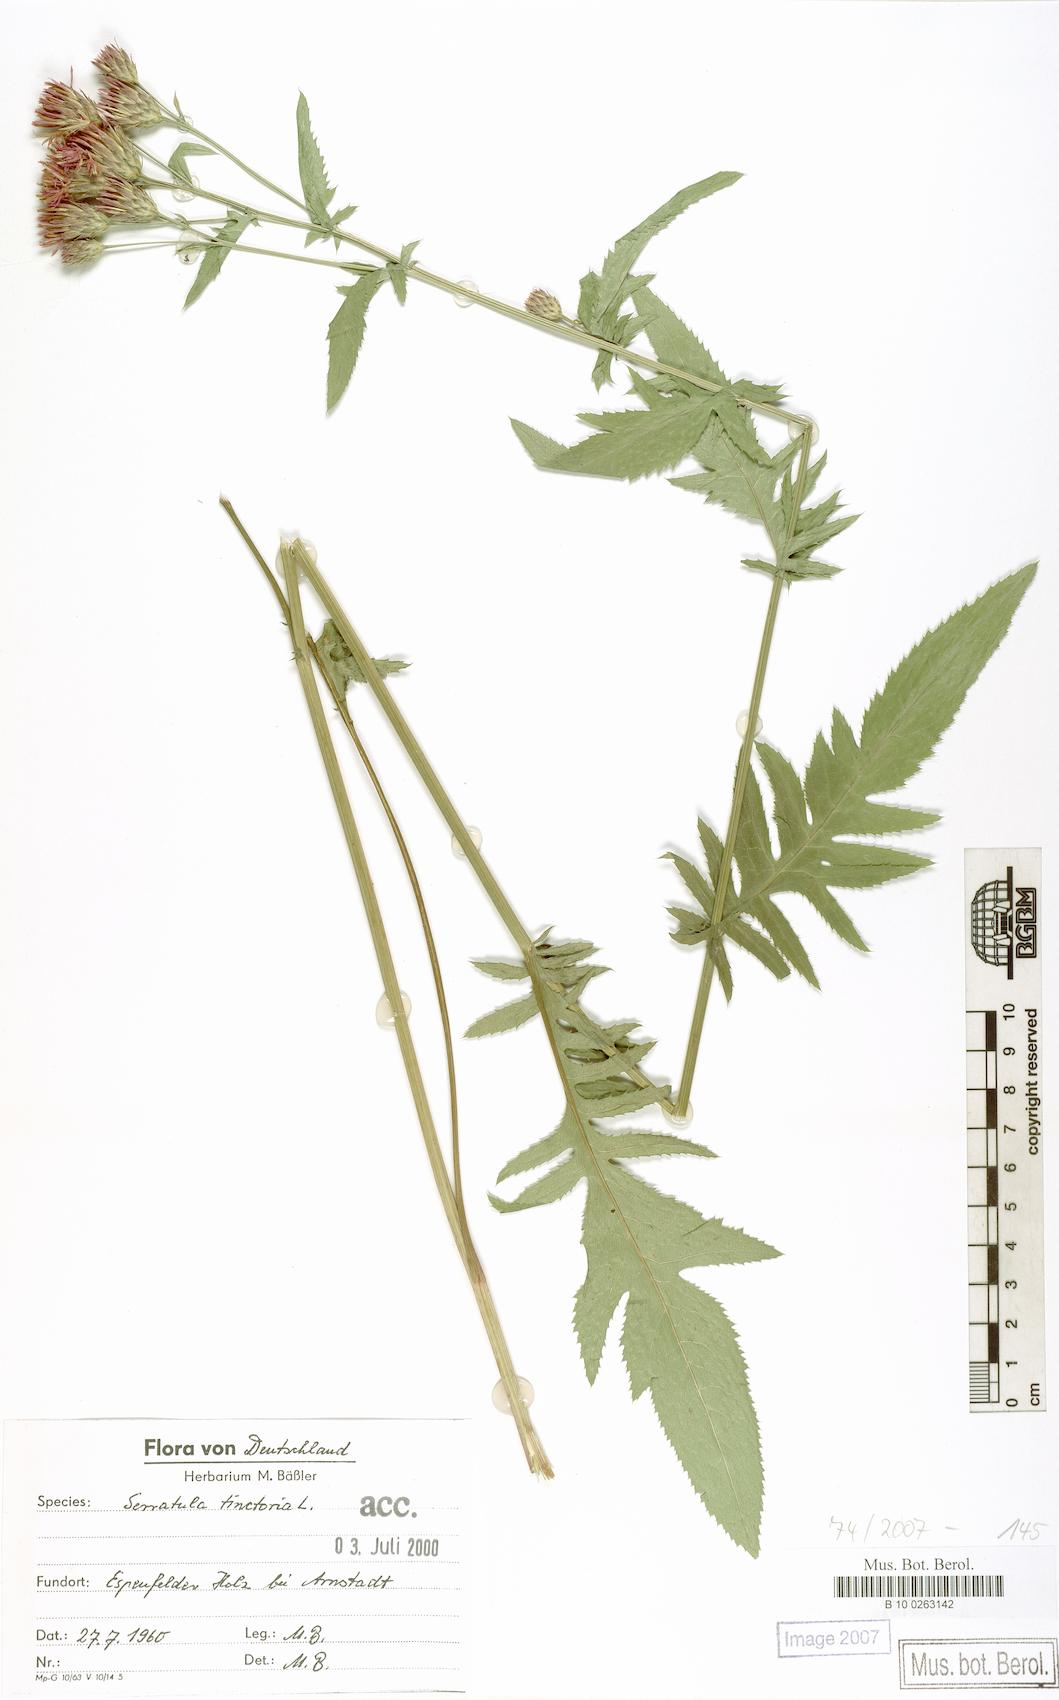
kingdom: Plantae
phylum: Tracheophyta
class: Magnoliopsida
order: Asterales
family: Asteraceae
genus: Serratula
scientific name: Serratula tinctoria
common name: Saw-wort
